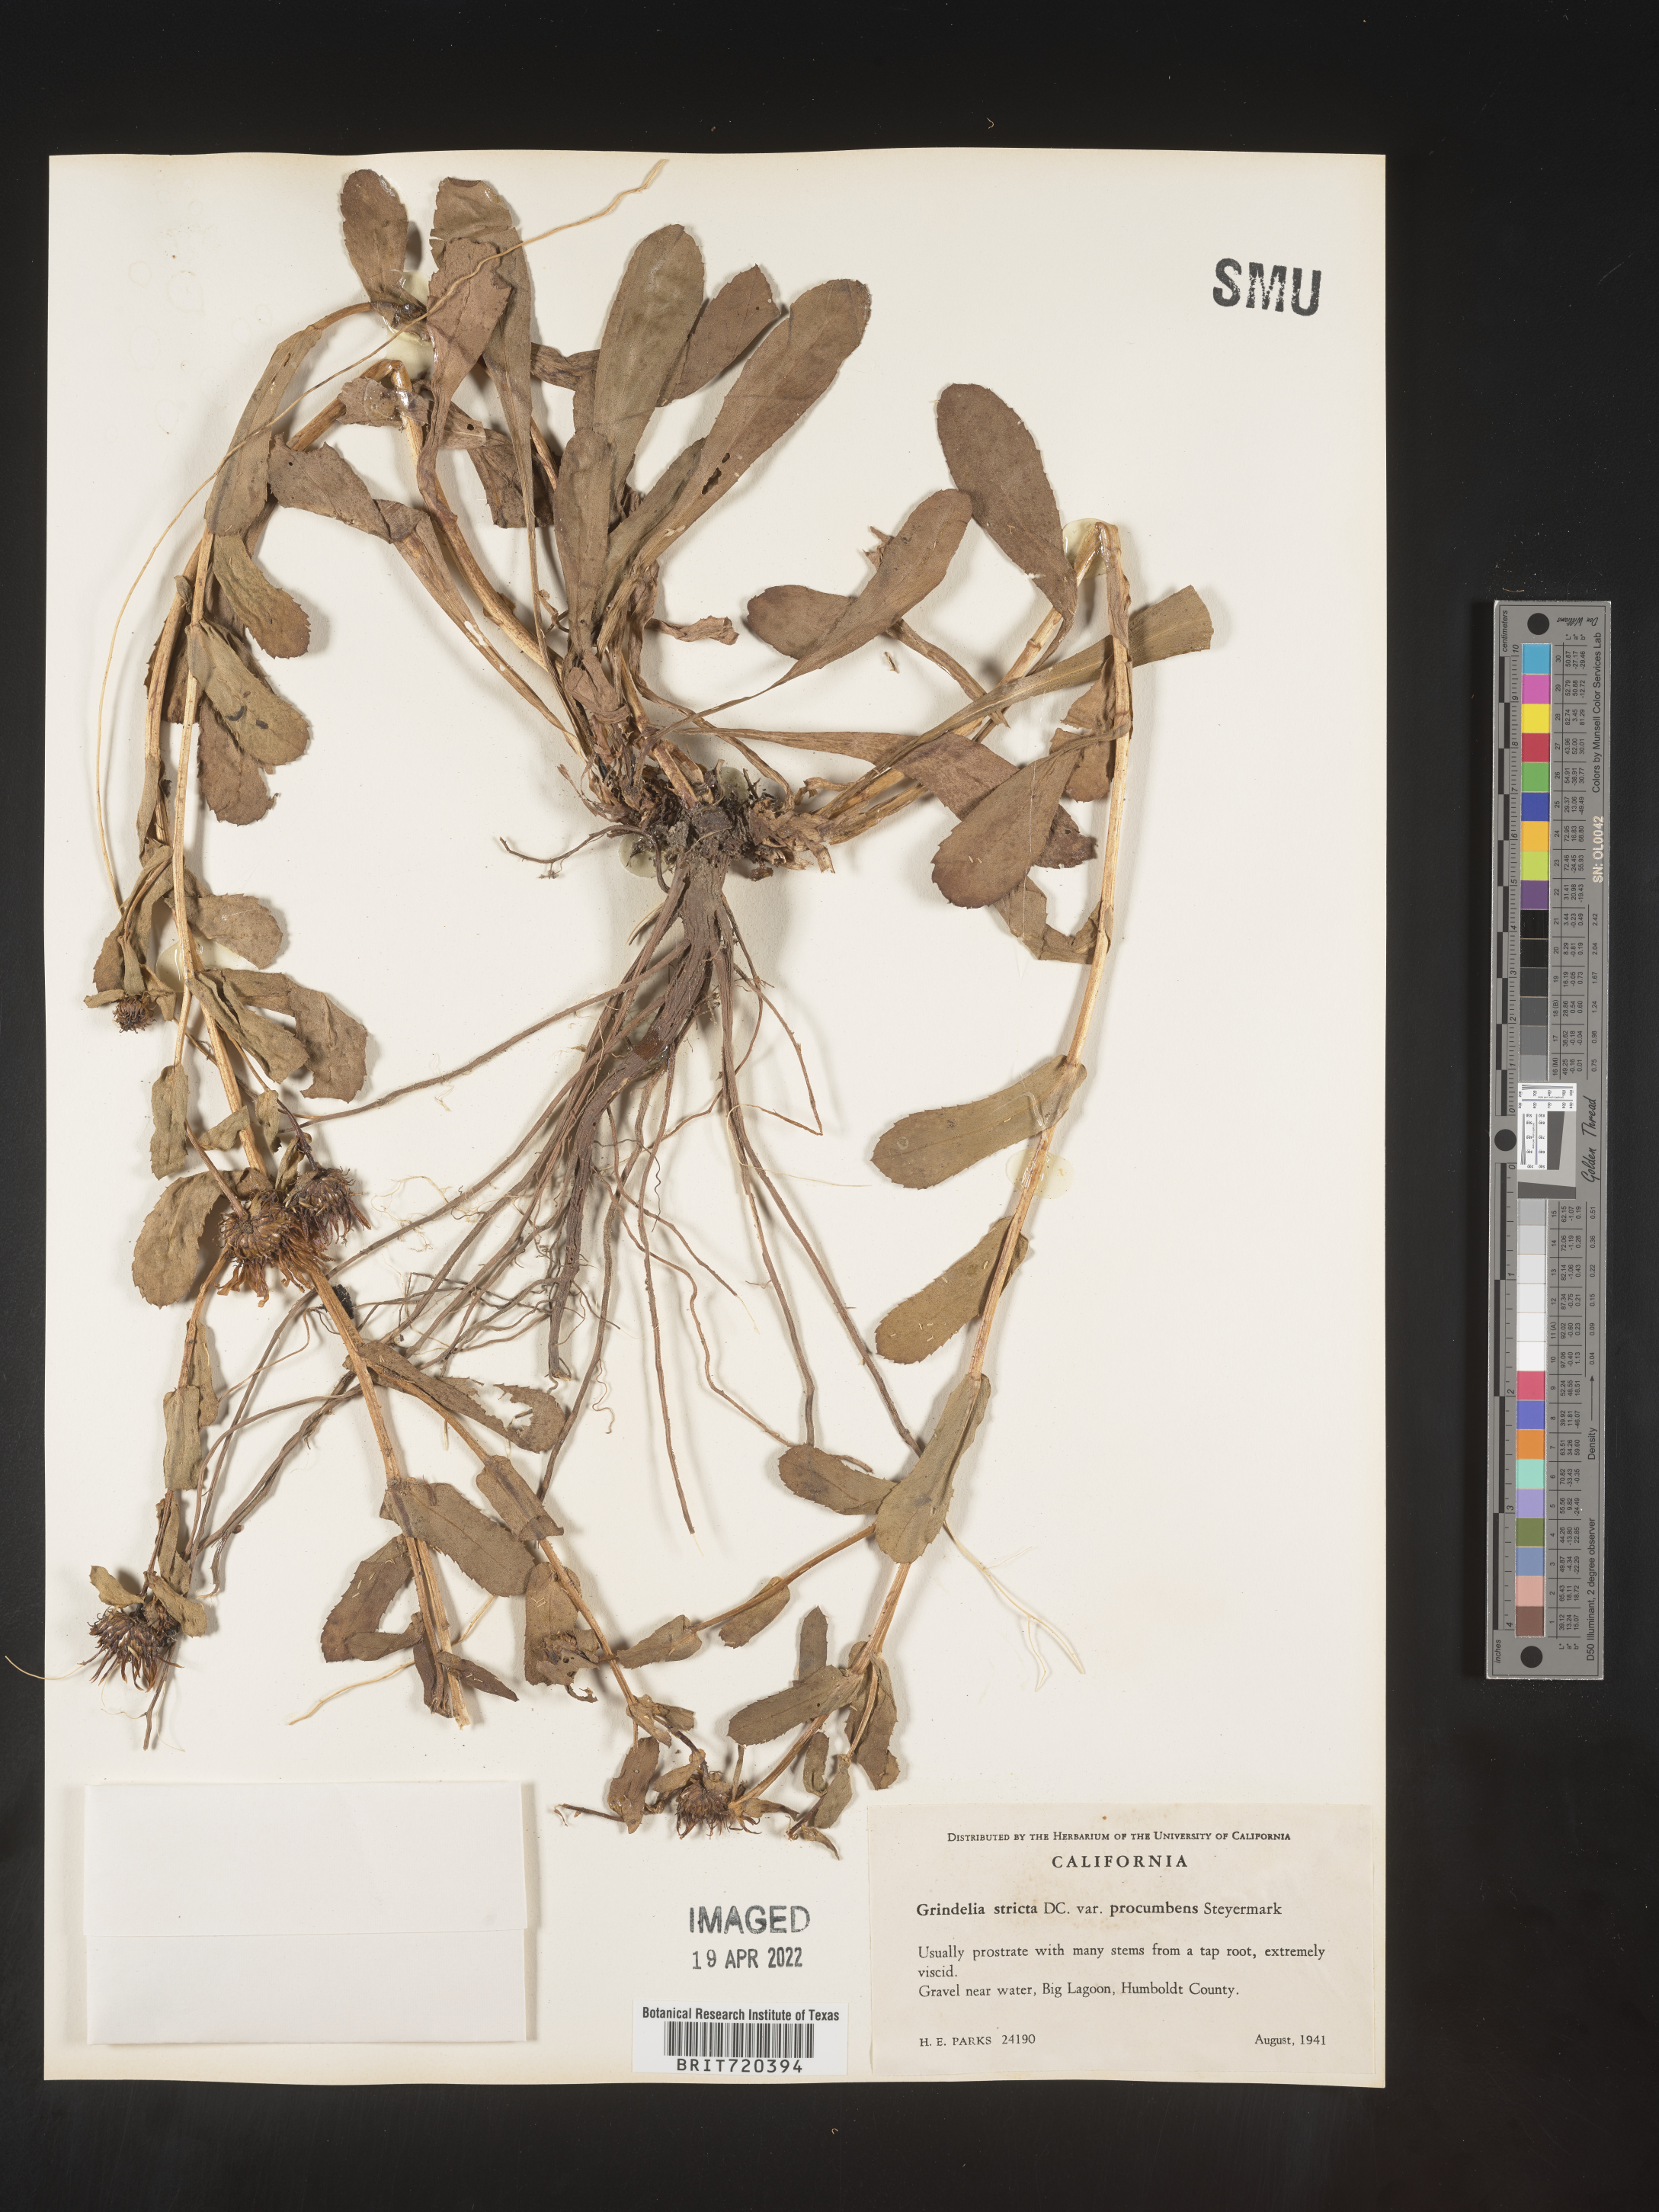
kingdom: Plantae
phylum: Tracheophyta
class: Magnoliopsida
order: Asterales
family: Asteraceae
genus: Grindelia
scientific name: Grindelia hirsutula
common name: Hairy gumweed
